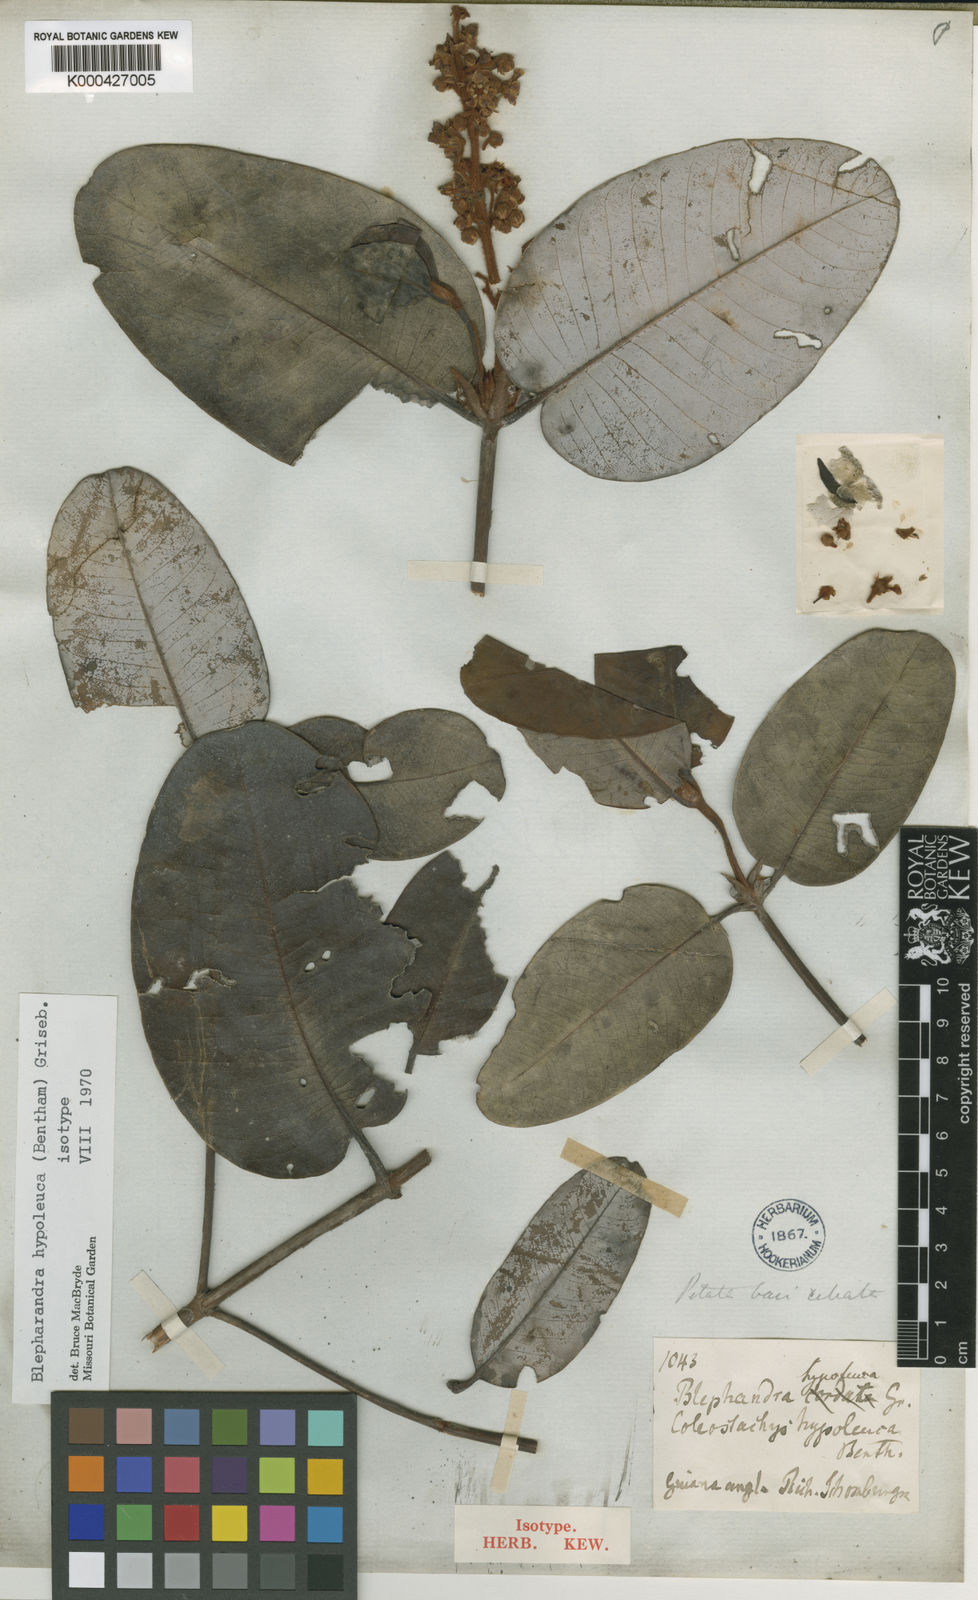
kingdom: Plantae
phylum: Tracheophyta
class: Magnoliopsida
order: Malpighiales
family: Malpighiaceae
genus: Blepharandra
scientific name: Blepharandra hypoleuca
